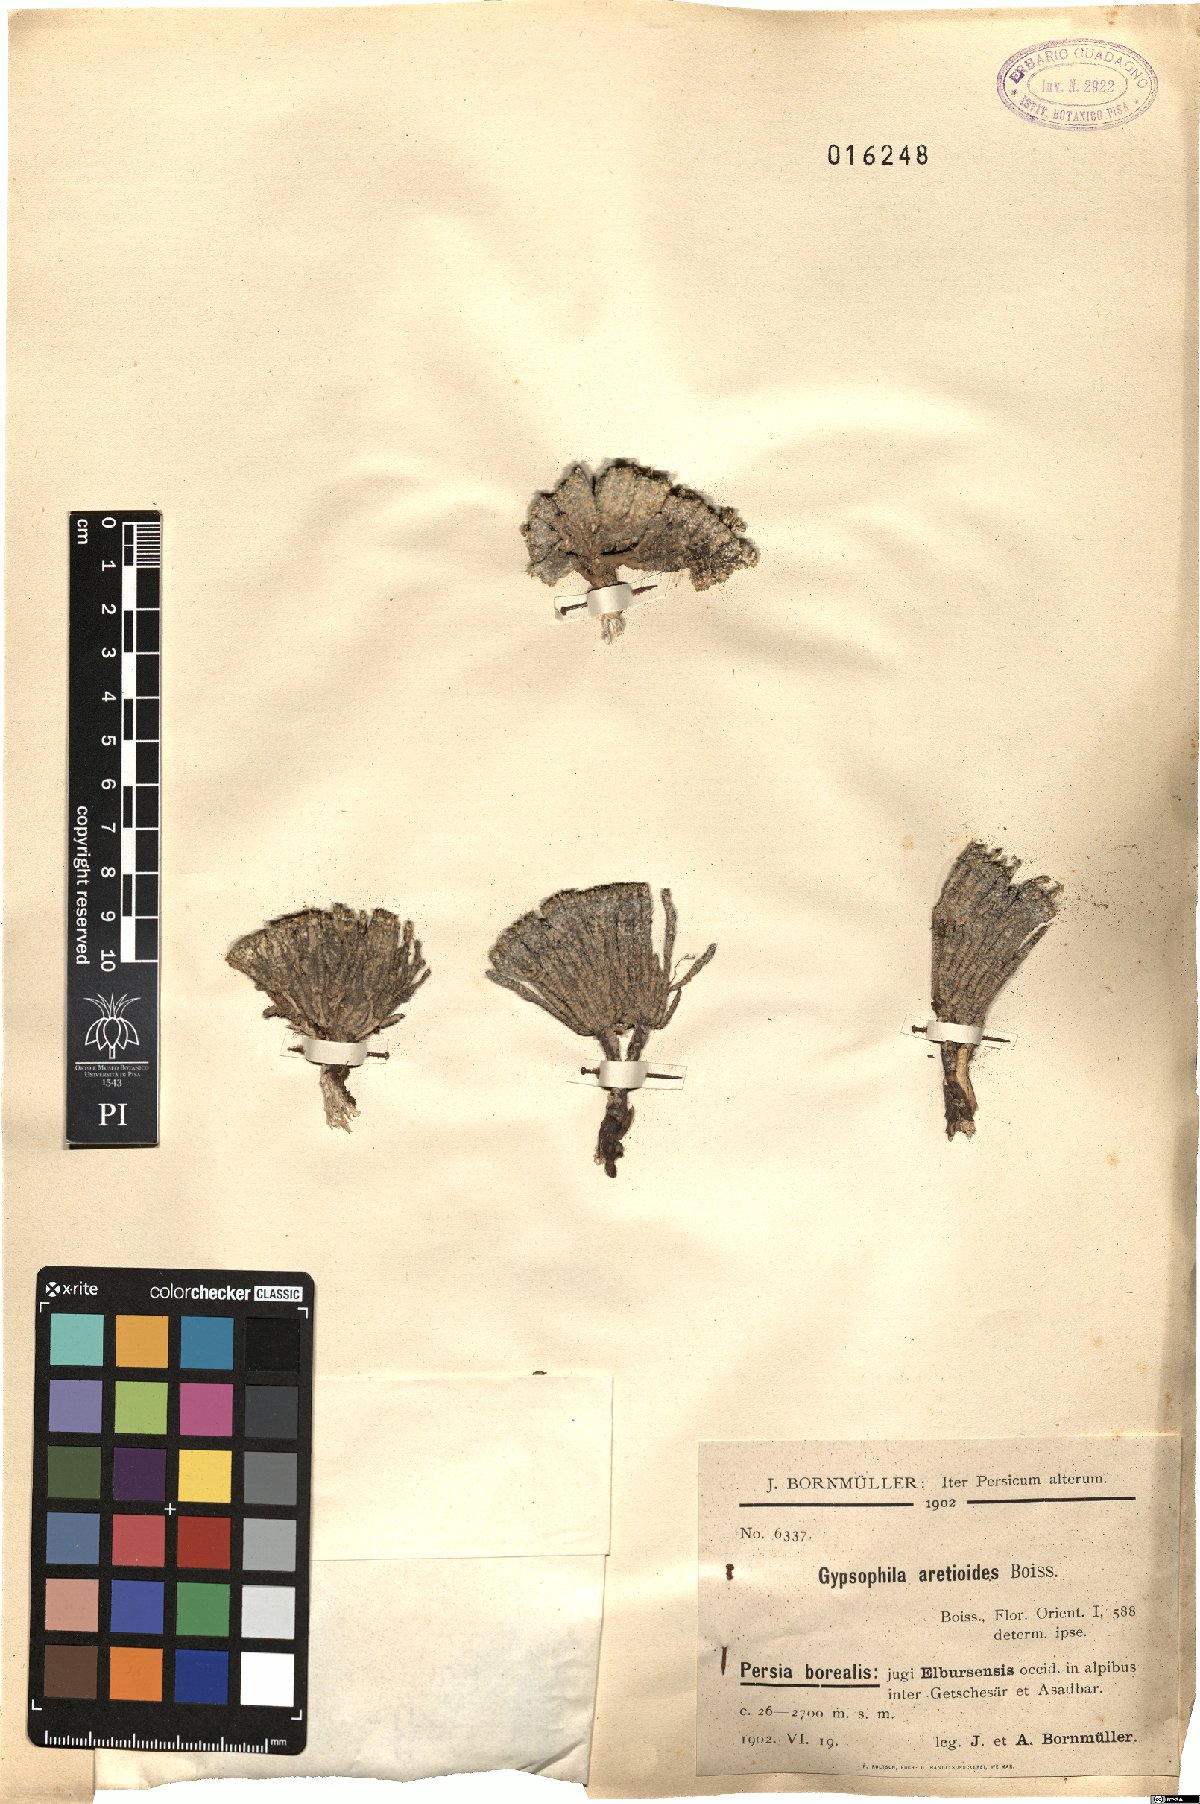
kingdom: Plantae
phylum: Tracheophyta
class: Magnoliopsida
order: Caryophyllales
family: Caryophyllaceae
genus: Gypsophila
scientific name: Gypsophila aretioides
